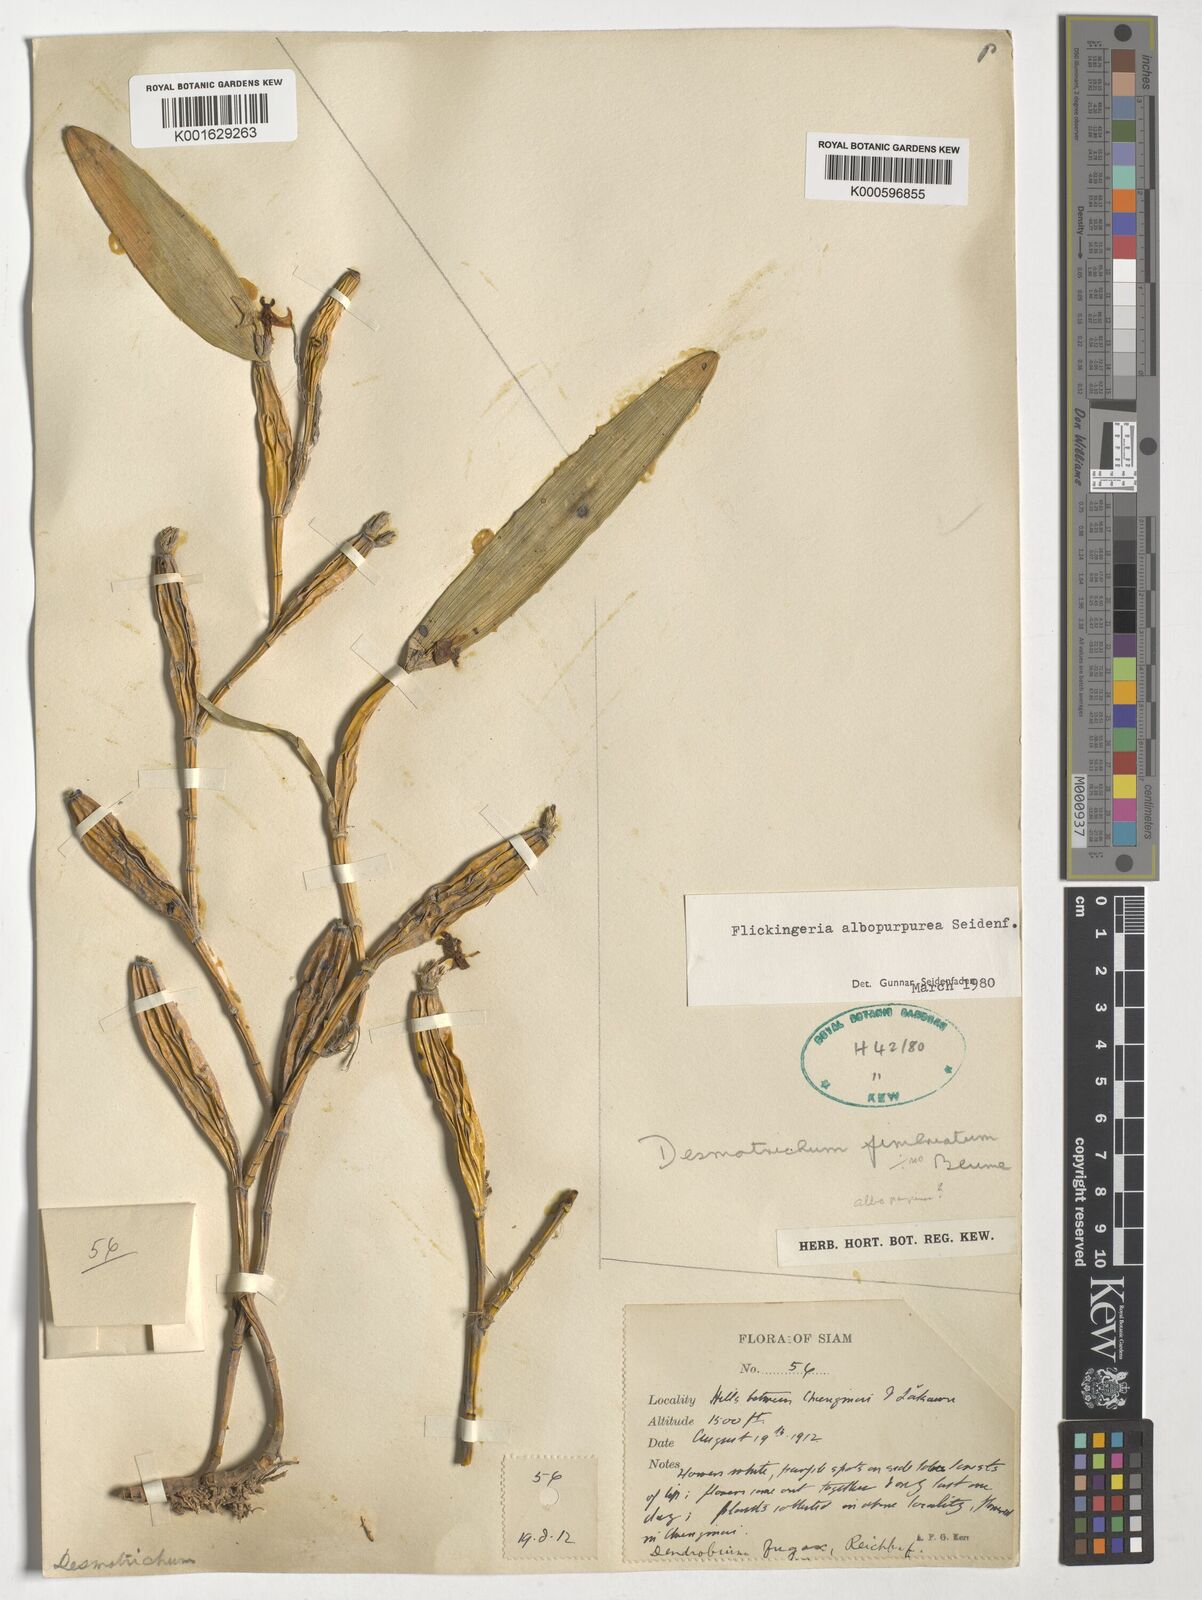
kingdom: Plantae
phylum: Tracheophyta
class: Liliopsida
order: Asparagales
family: Orchidaceae
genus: Dendrobium
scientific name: Dendrobium albopurpureum
